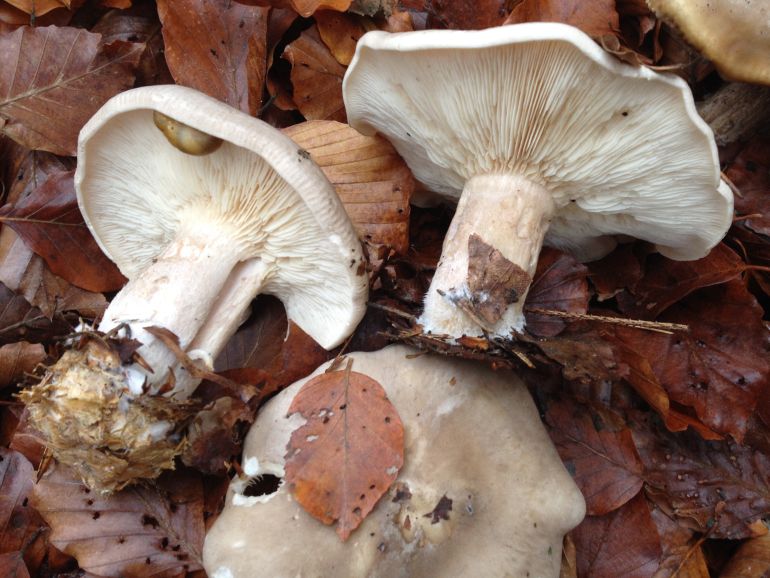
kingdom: Fungi
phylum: Basidiomycota
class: Agaricomycetes
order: Agaricales
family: Tricholomataceae
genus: Clitocybe
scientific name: Clitocybe nebularis
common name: tåge-tragthat
